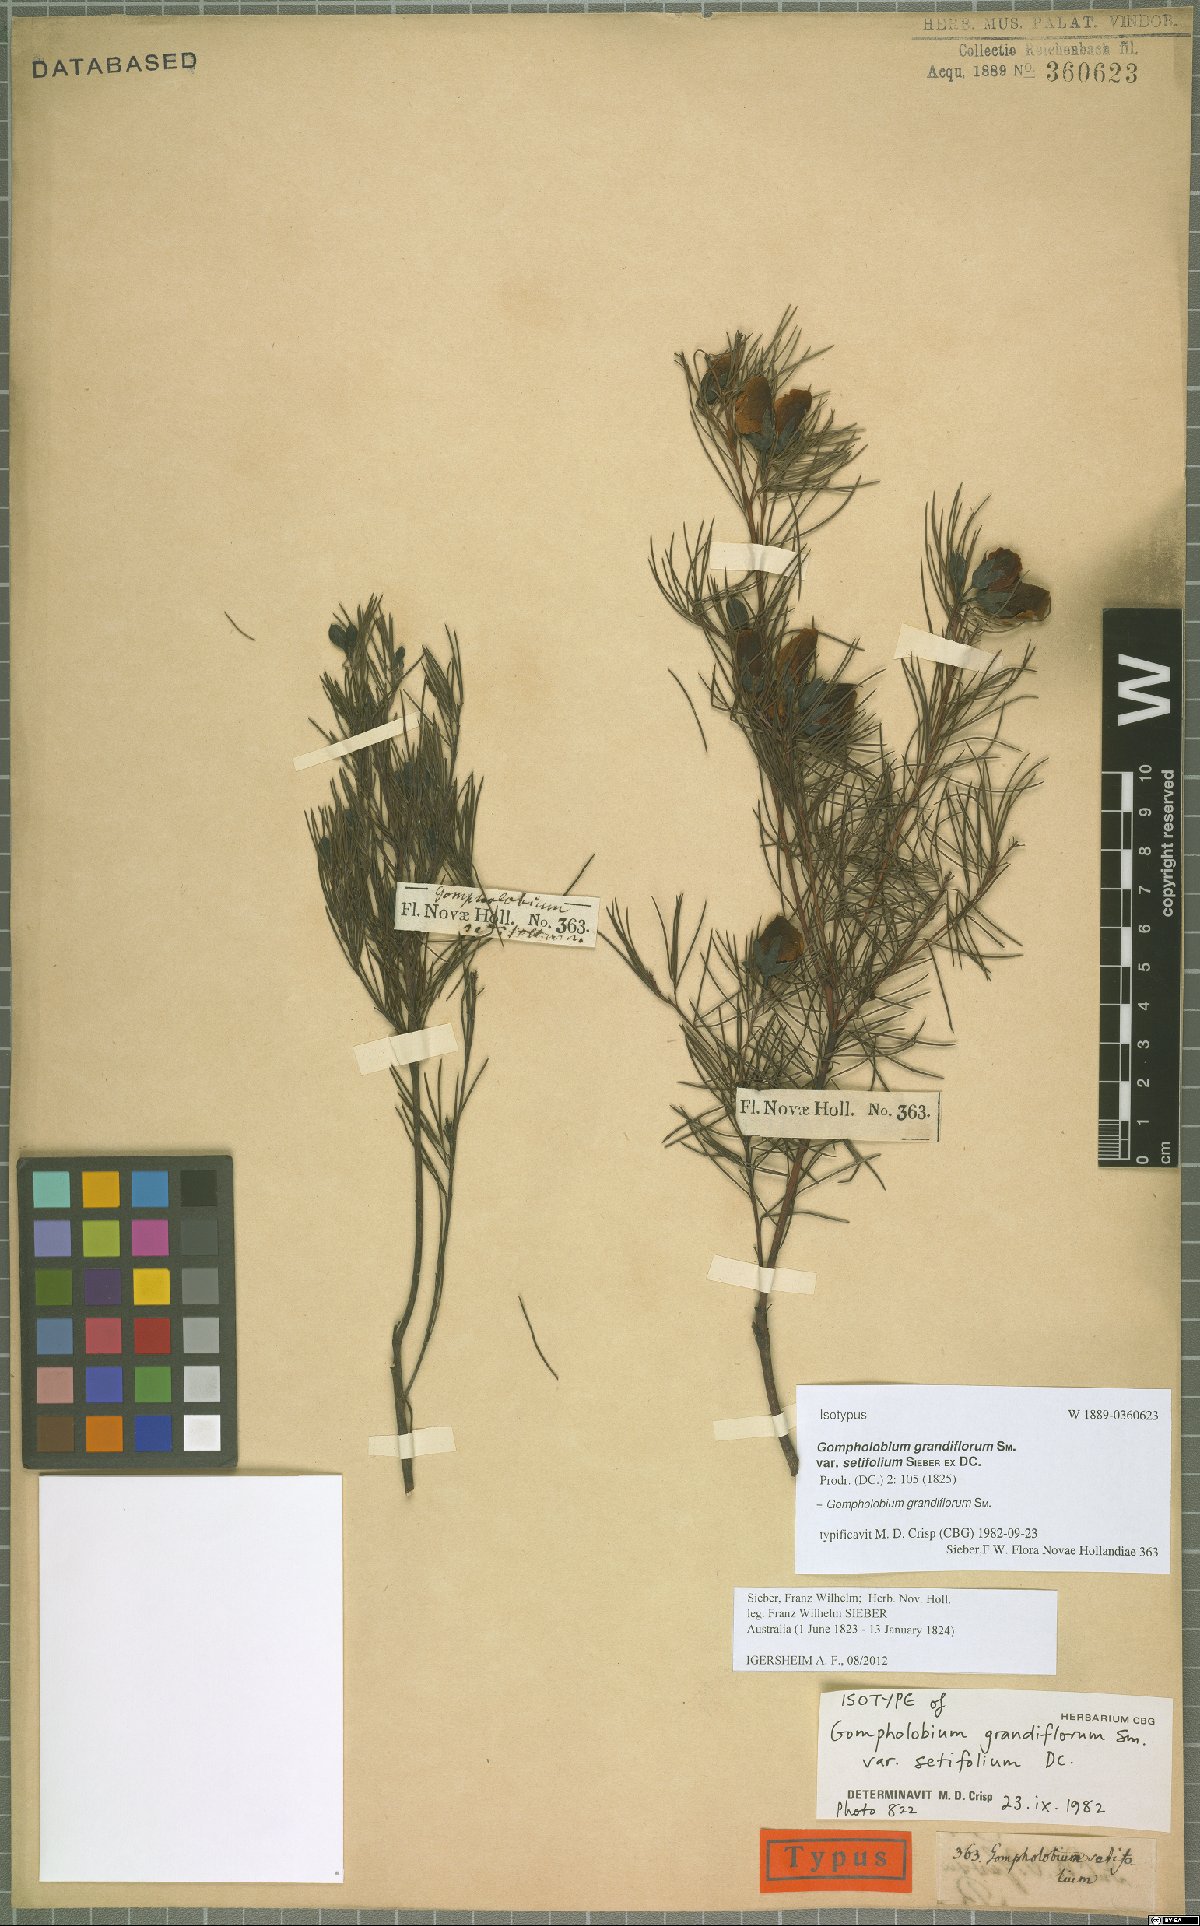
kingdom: Plantae
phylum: Tracheophyta
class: Magnoliopsida
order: Fabales
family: Fabaceae
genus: Gompholobium
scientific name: Gompholobium grandiflorum
